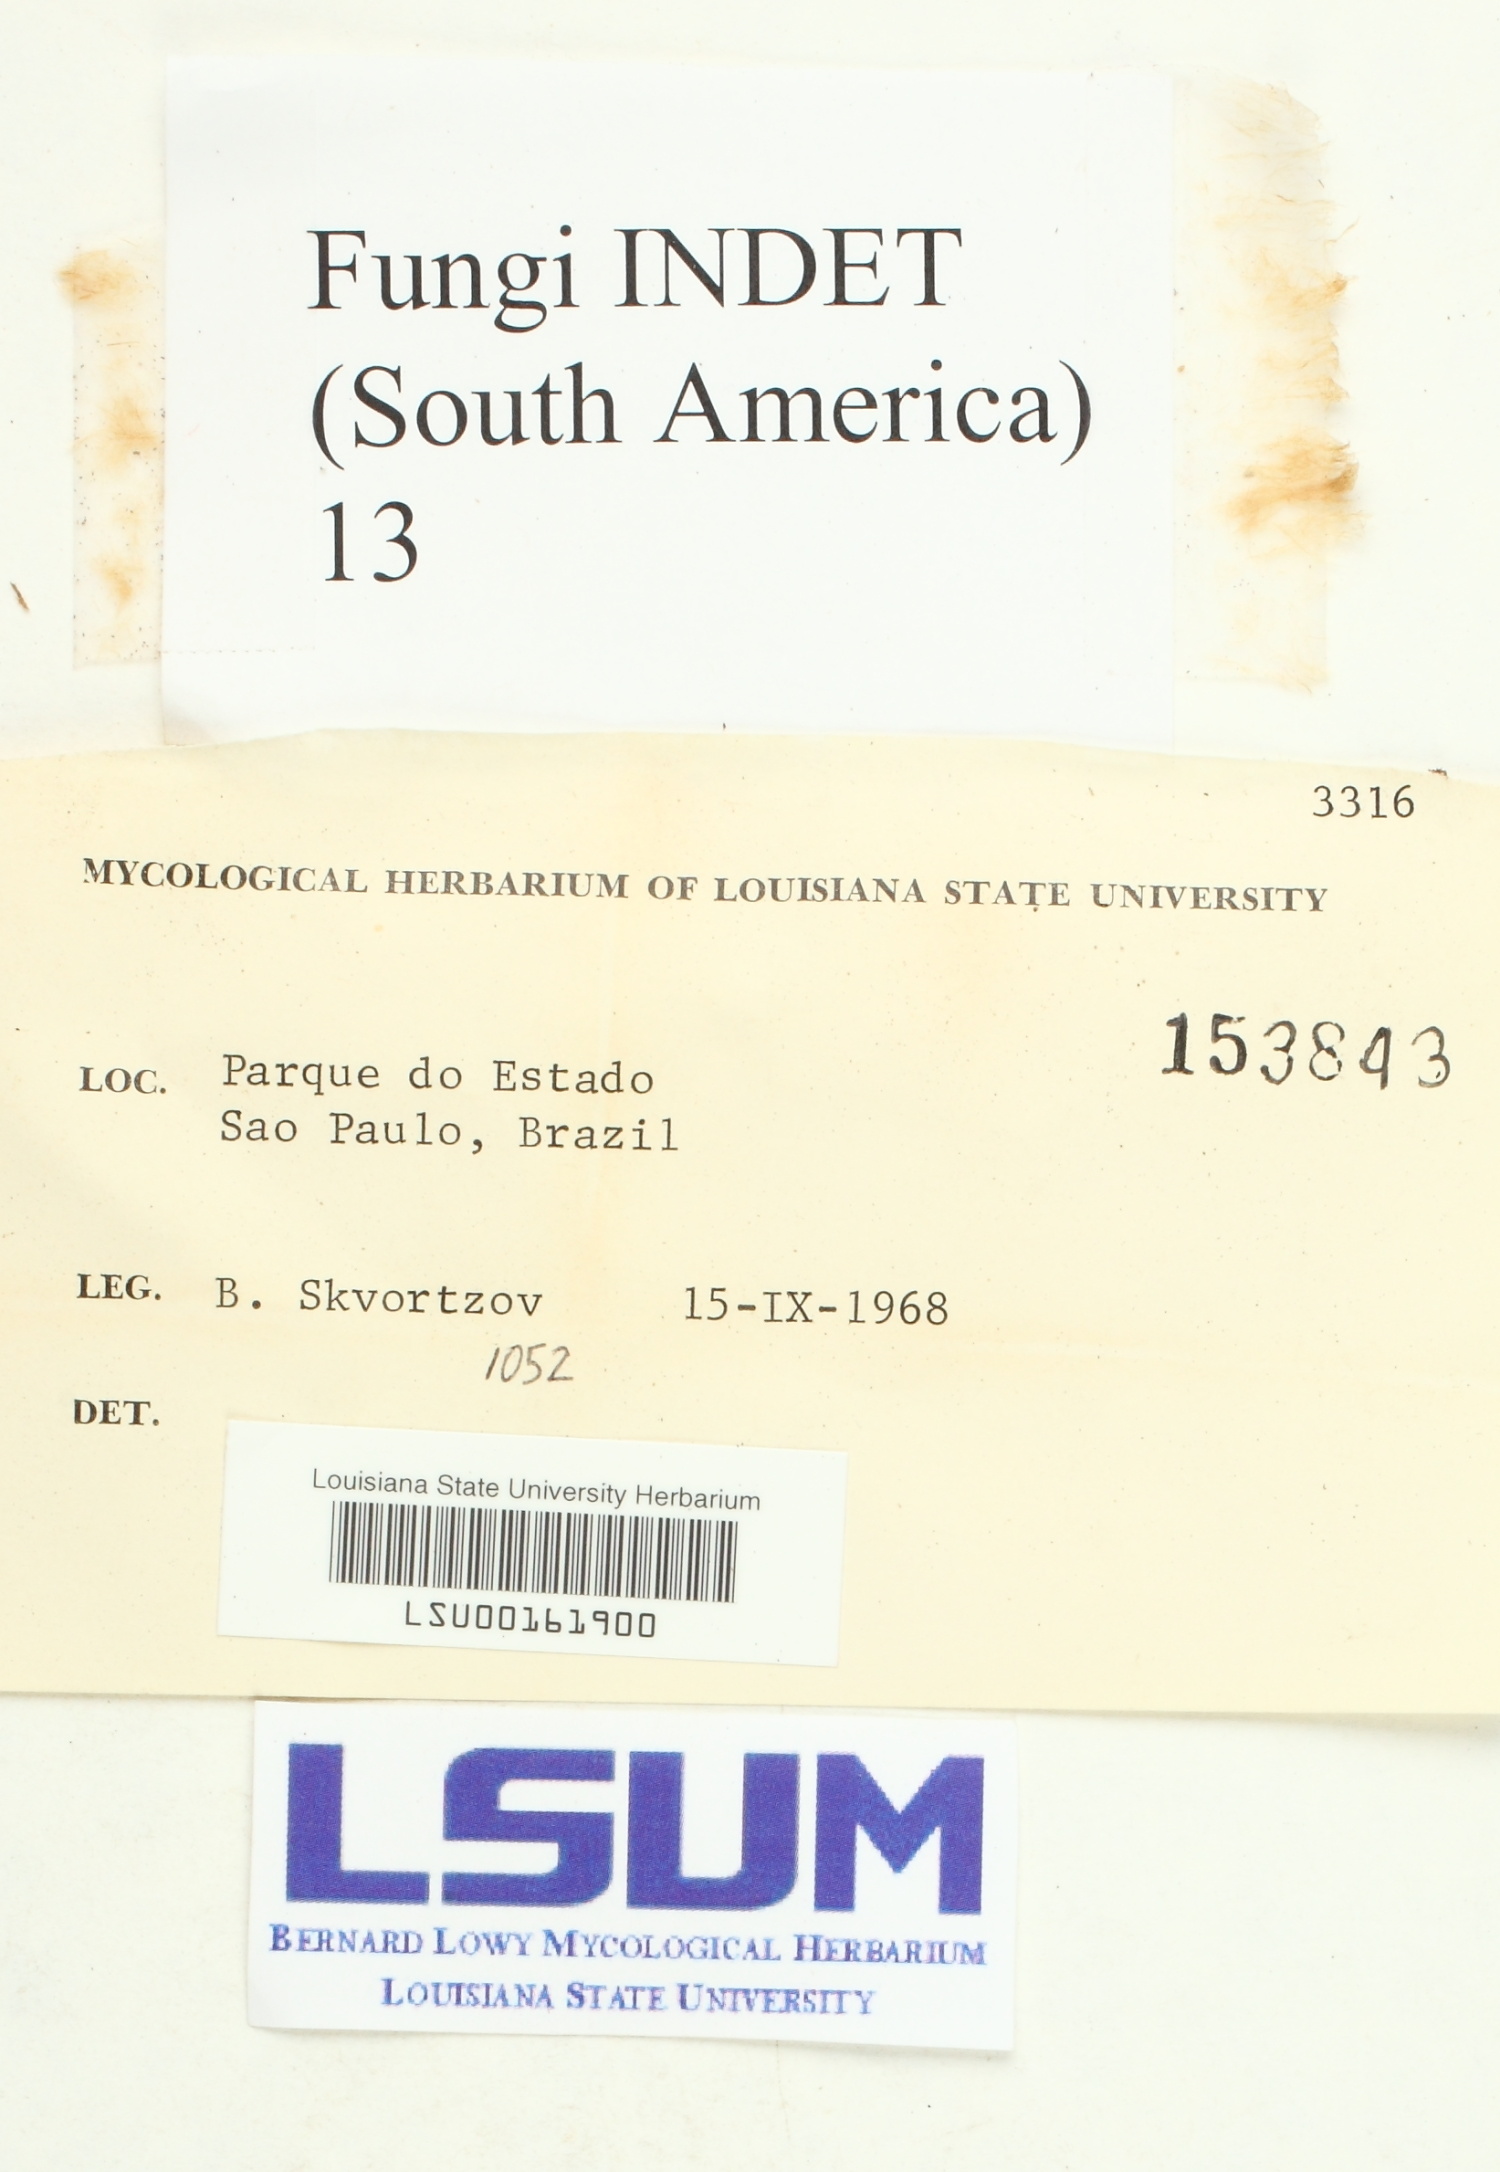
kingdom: Fungi
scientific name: Fungi
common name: Fungi
